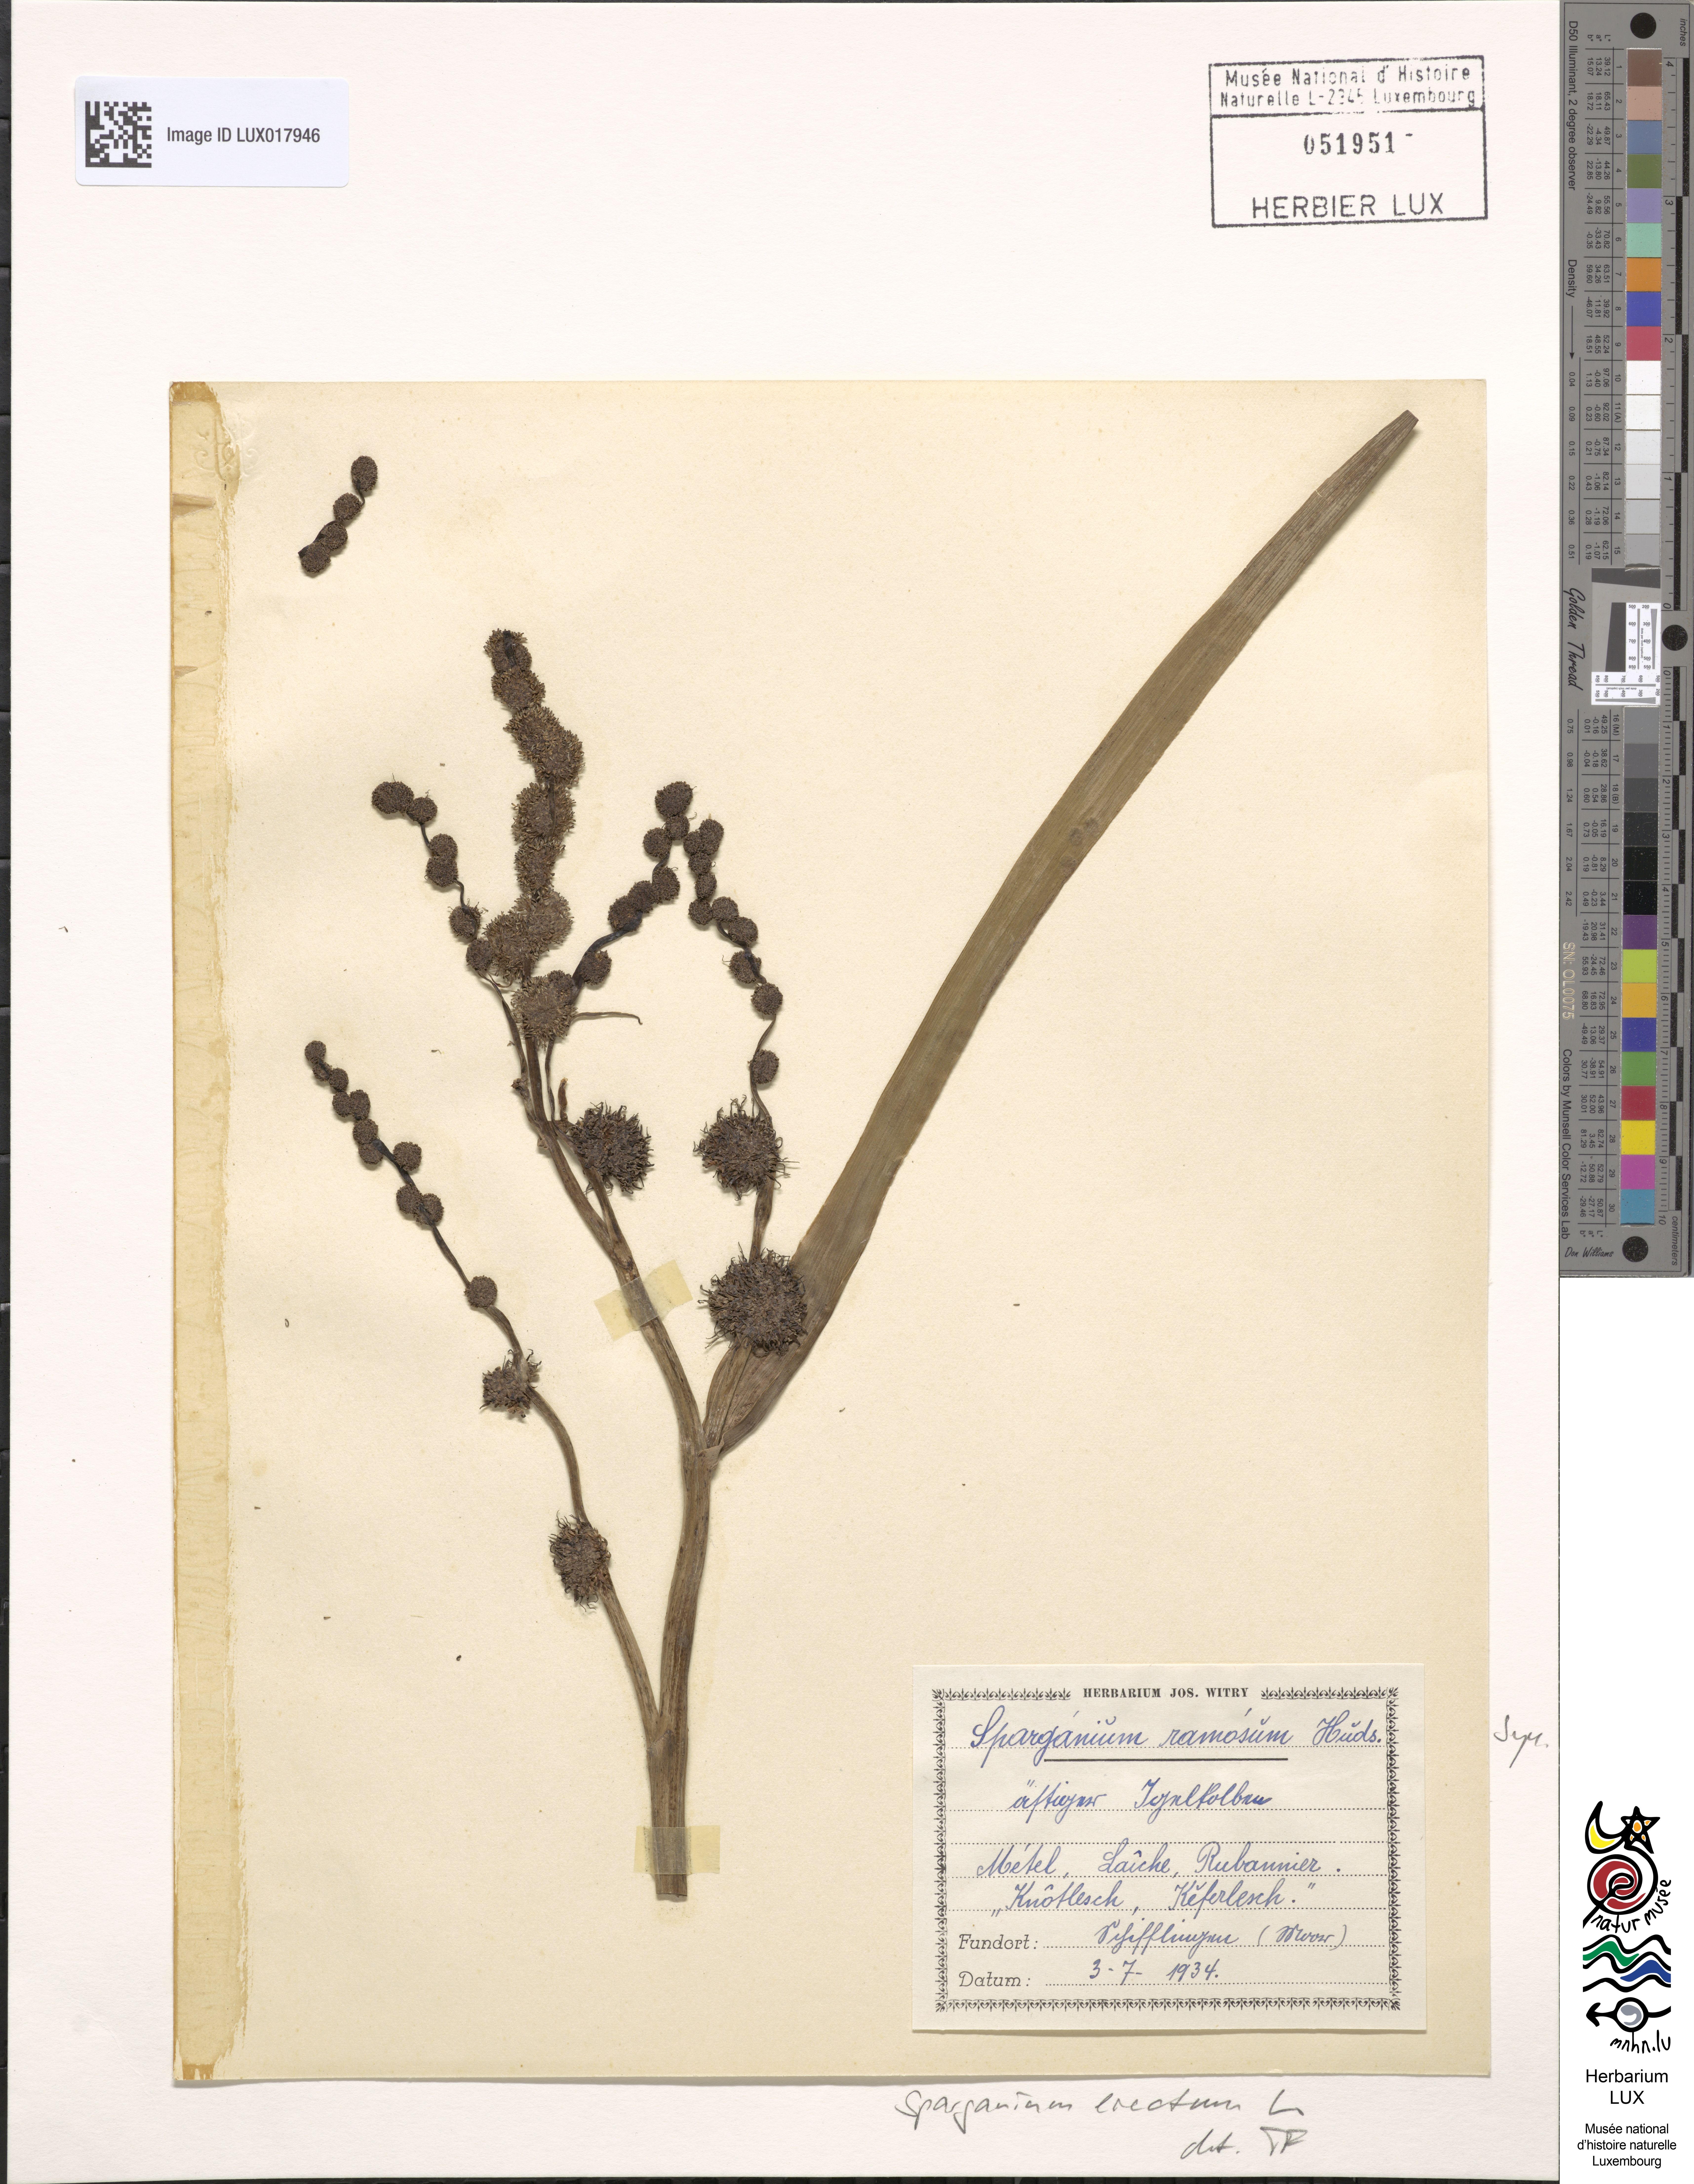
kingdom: Plantae
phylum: Tracheophyta
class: Liliopsida
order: Poales
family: Typhaceae
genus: Sparganium
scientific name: Sparganium erectum
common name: Branched bur-reed
